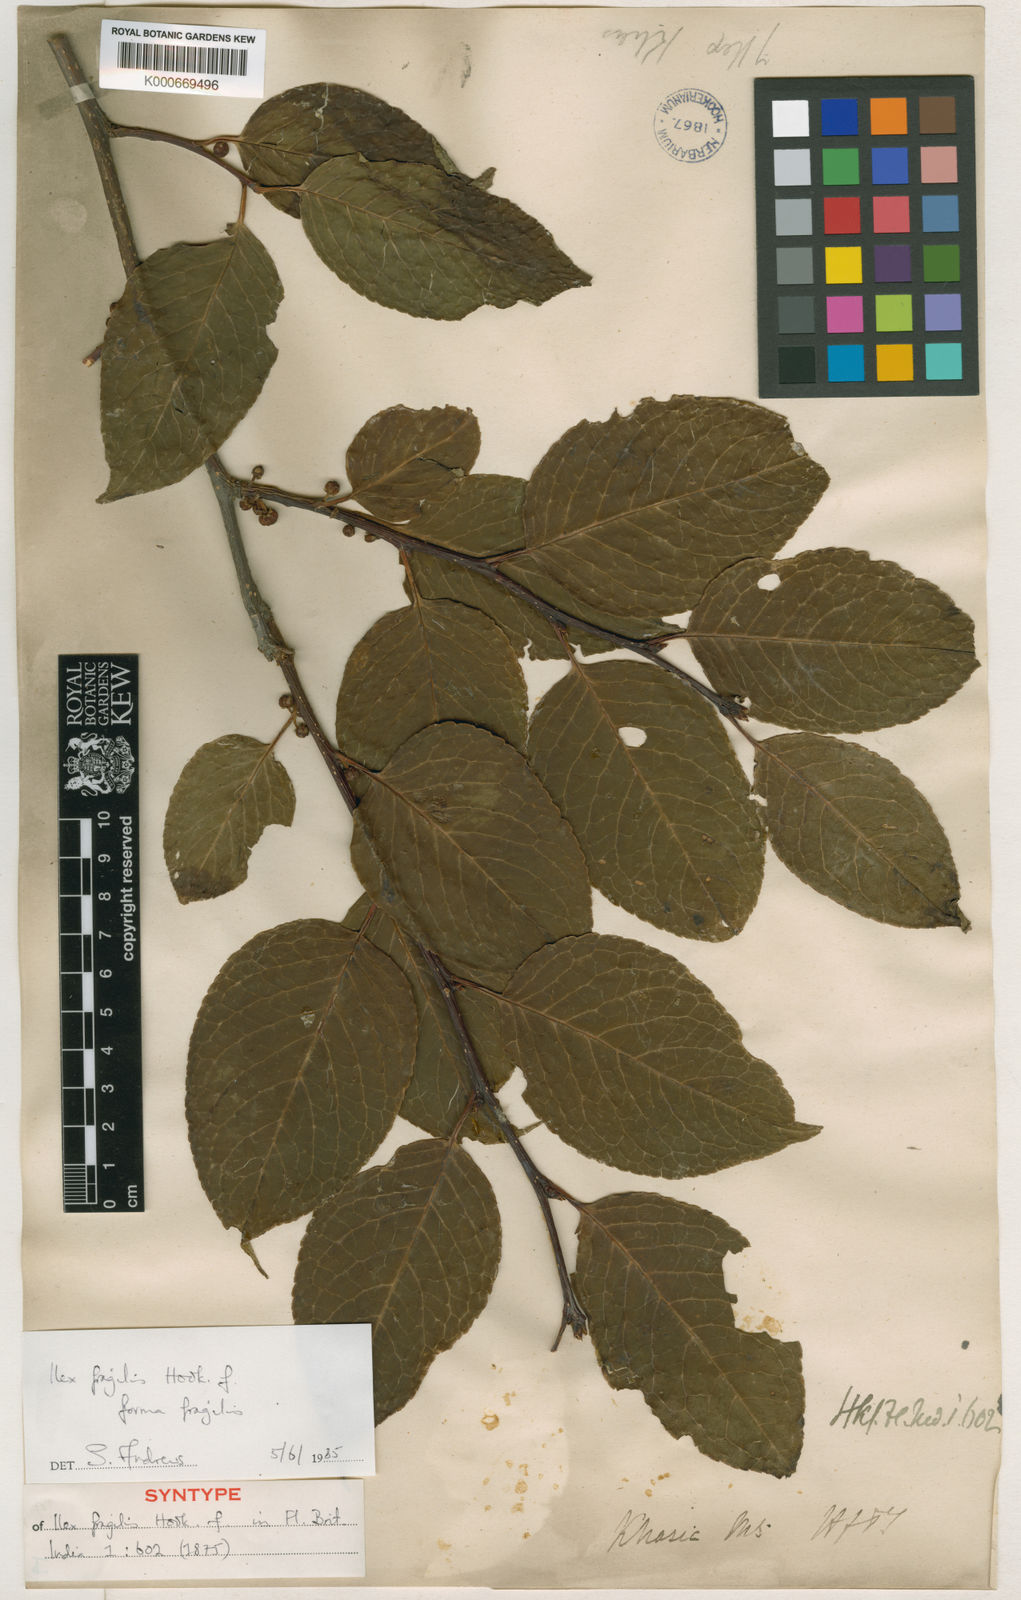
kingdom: Plantae
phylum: Tracheophyta
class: Magnoliopsida
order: Aquifoliales
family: Aquifoliaceae
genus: Ilex
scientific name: Ilex fragilis
